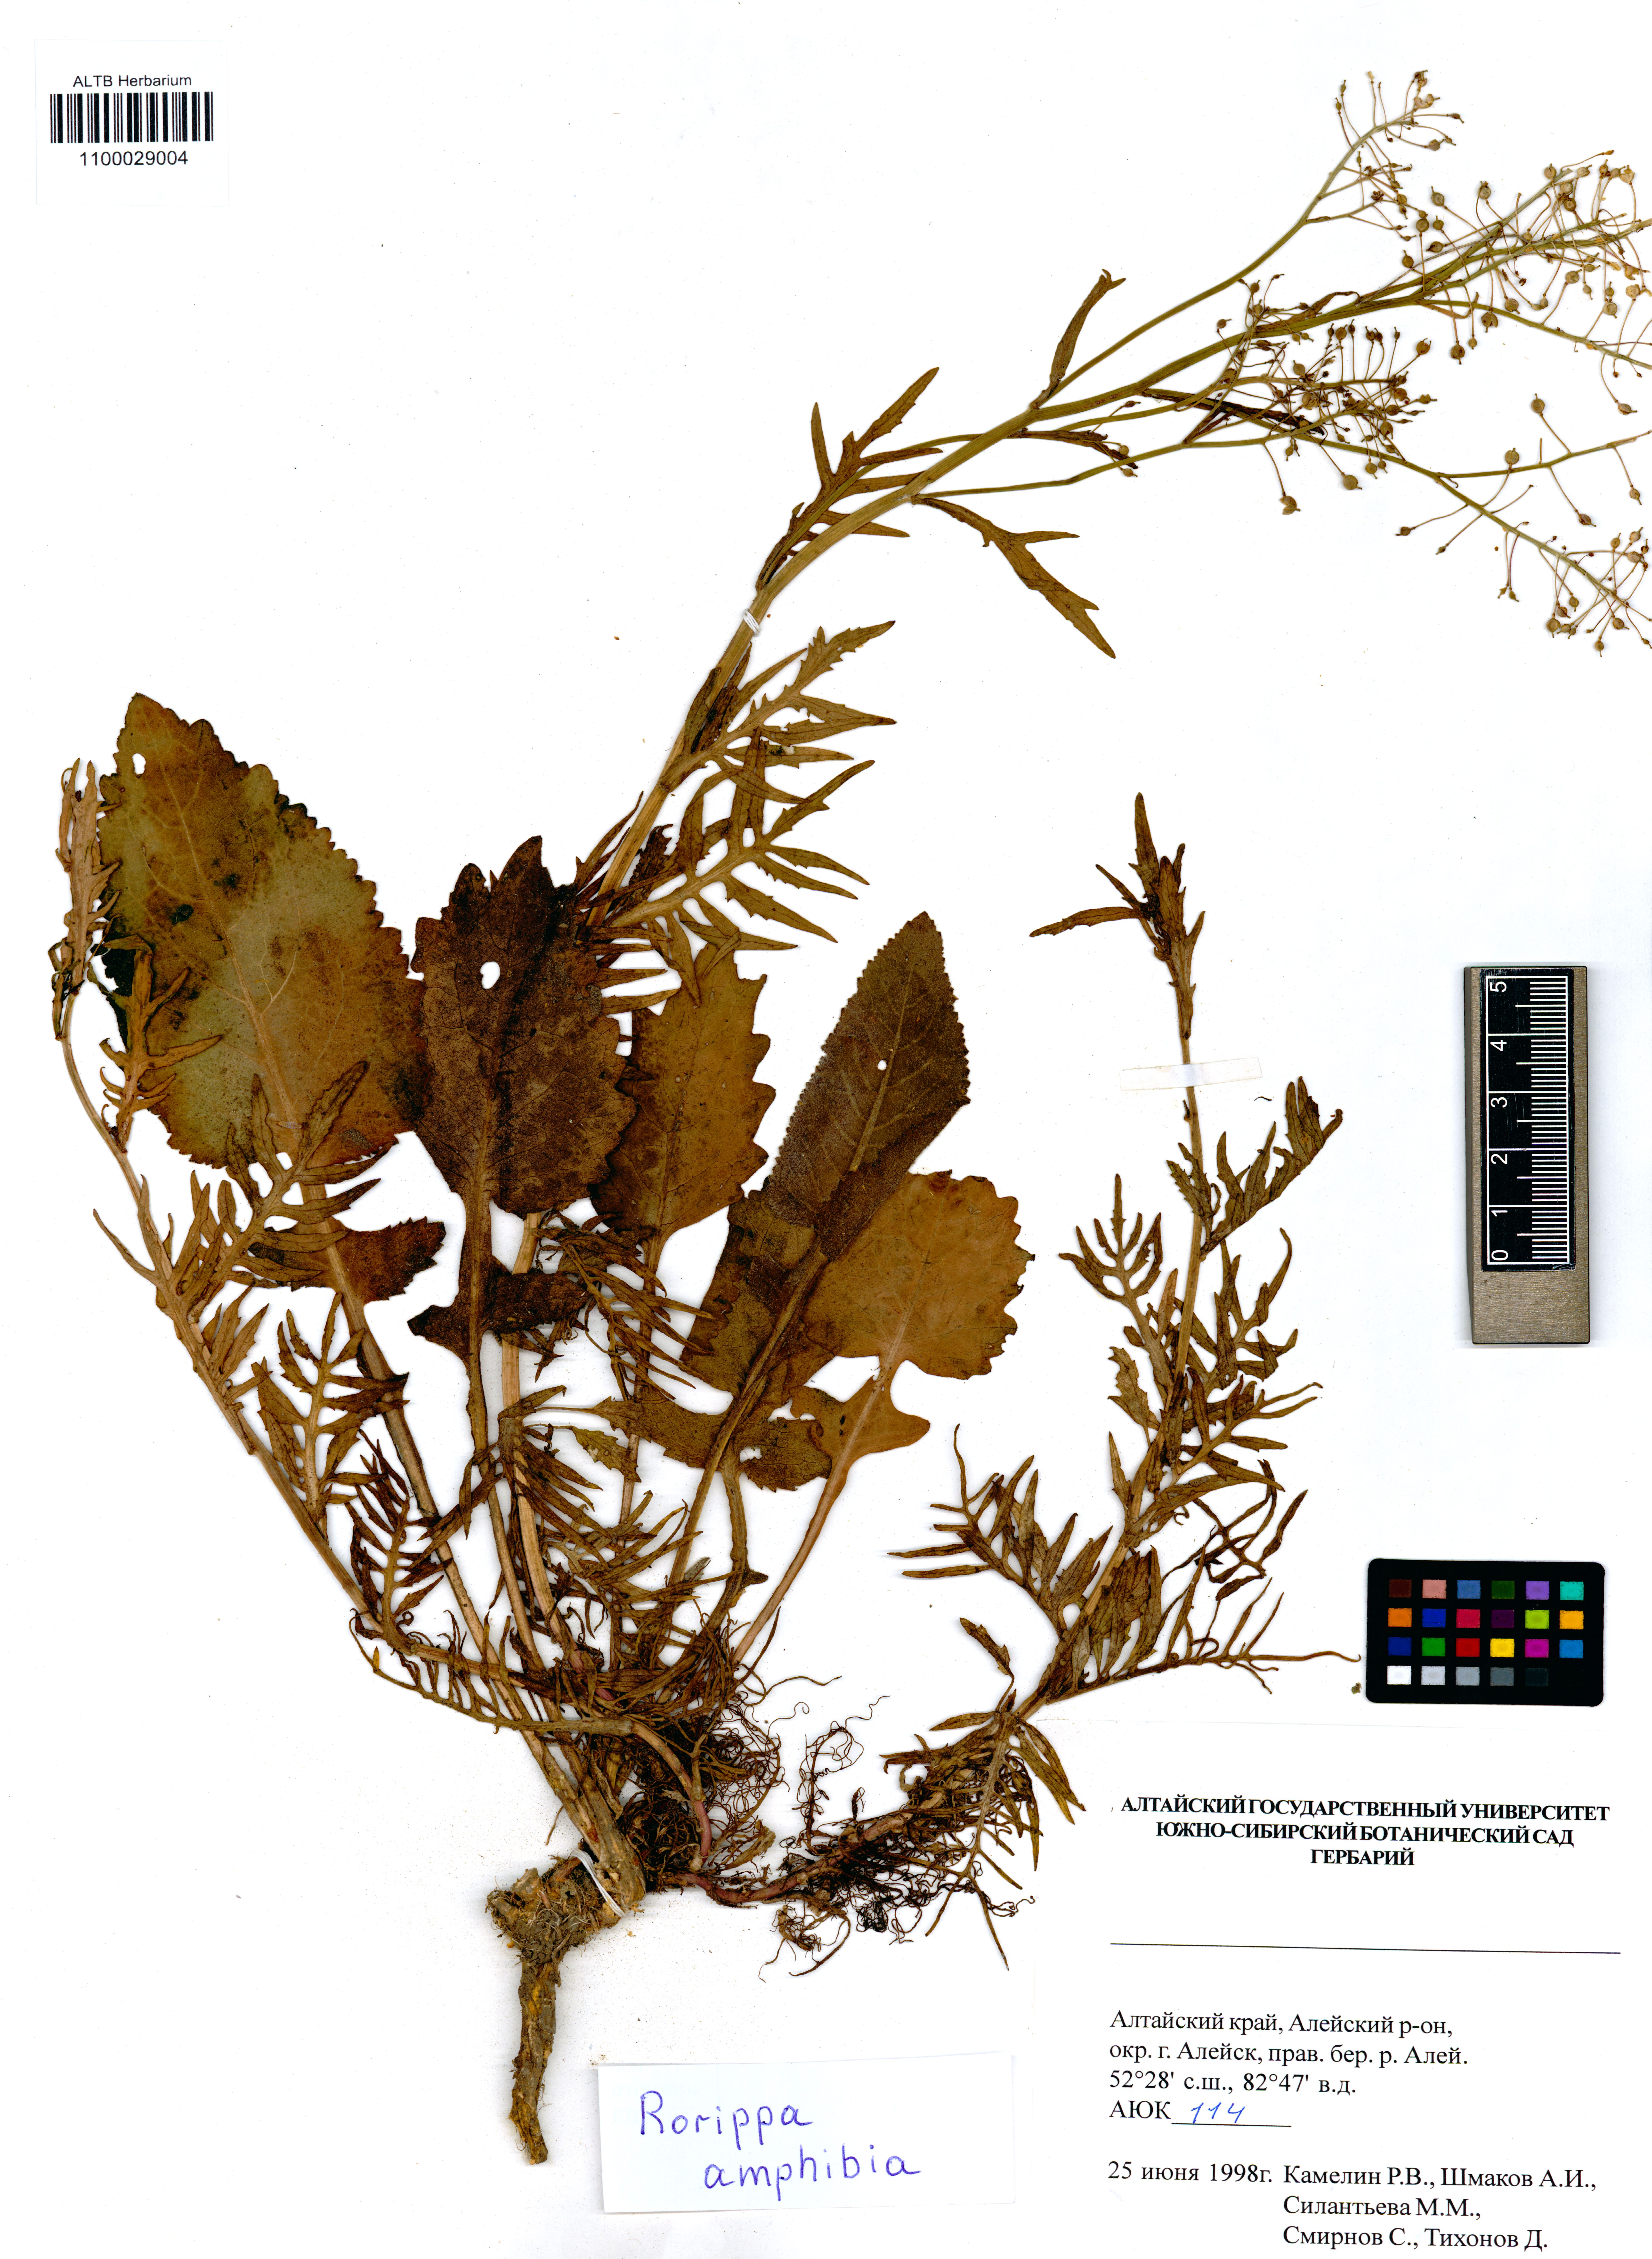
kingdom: Plantae
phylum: Tracheophyta
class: Magnoliopsida
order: Brassicales
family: Brassicaceae
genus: Rorippa
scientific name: Rorippa amphibia
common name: Great yellow-cress
